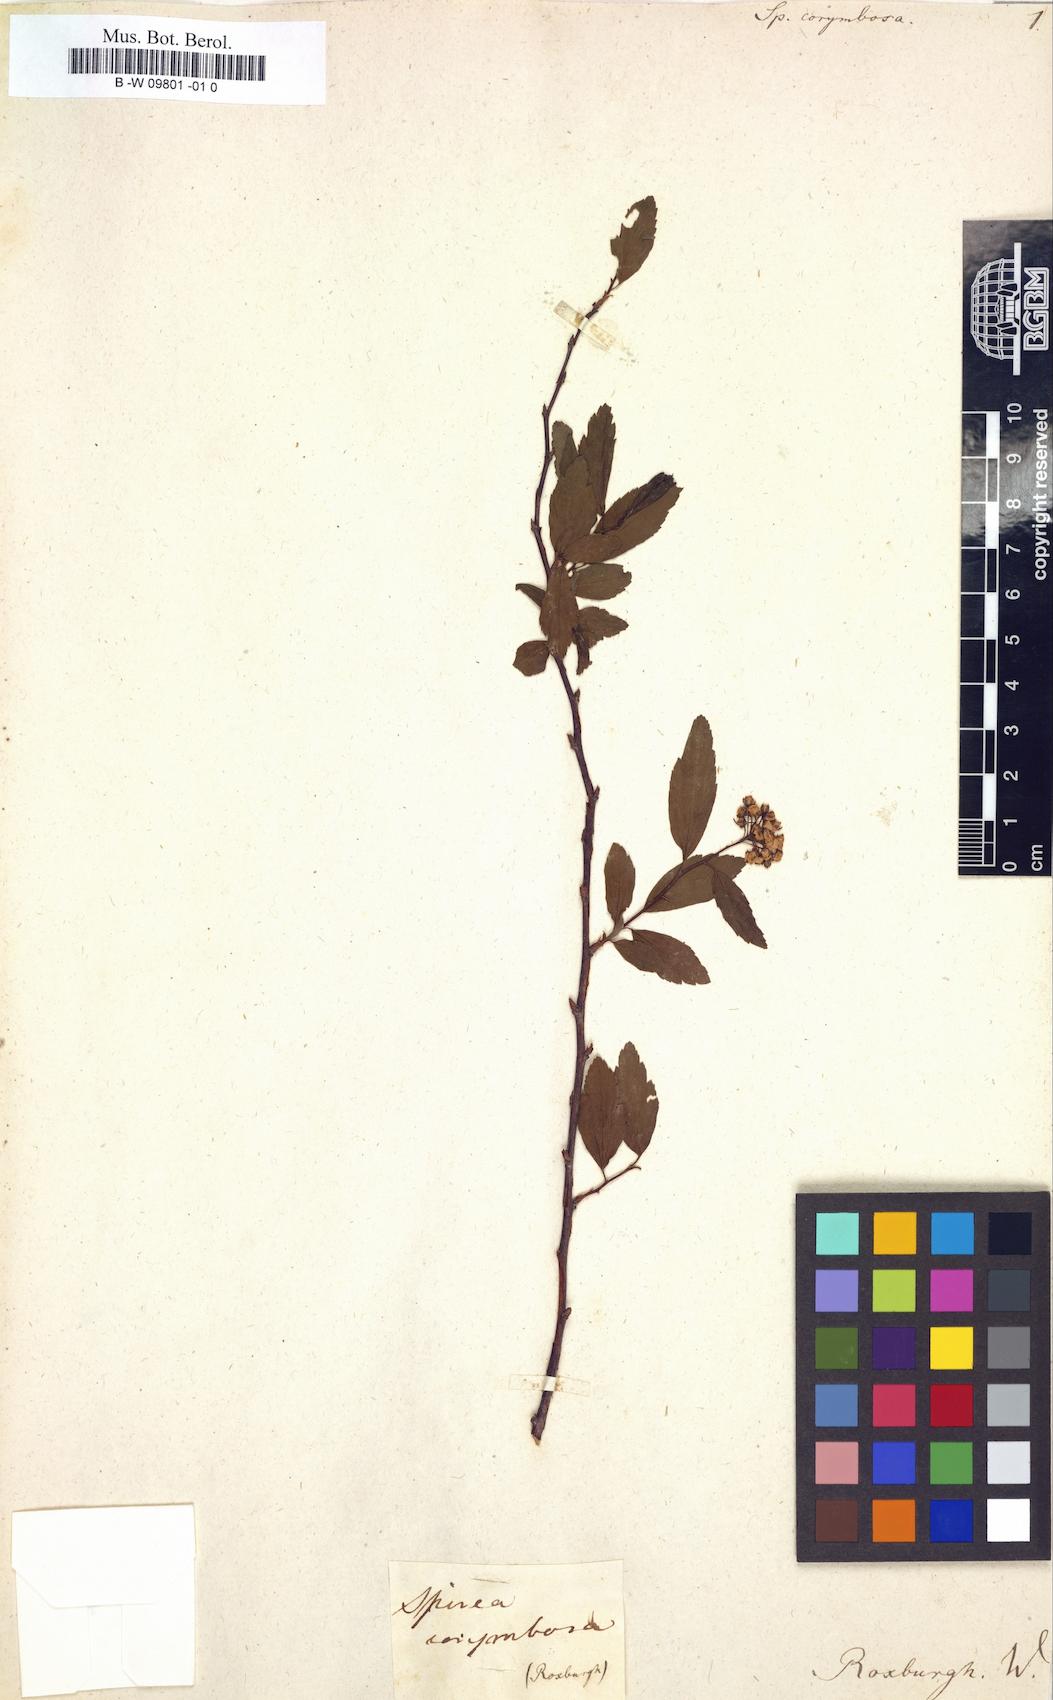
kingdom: Plantae
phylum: Tracheophyta
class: Magnoliopsida
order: Rosales
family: Rosaceae
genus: Spiraea
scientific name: Spiraea cantoniensis
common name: Reeves' meadowsweet
